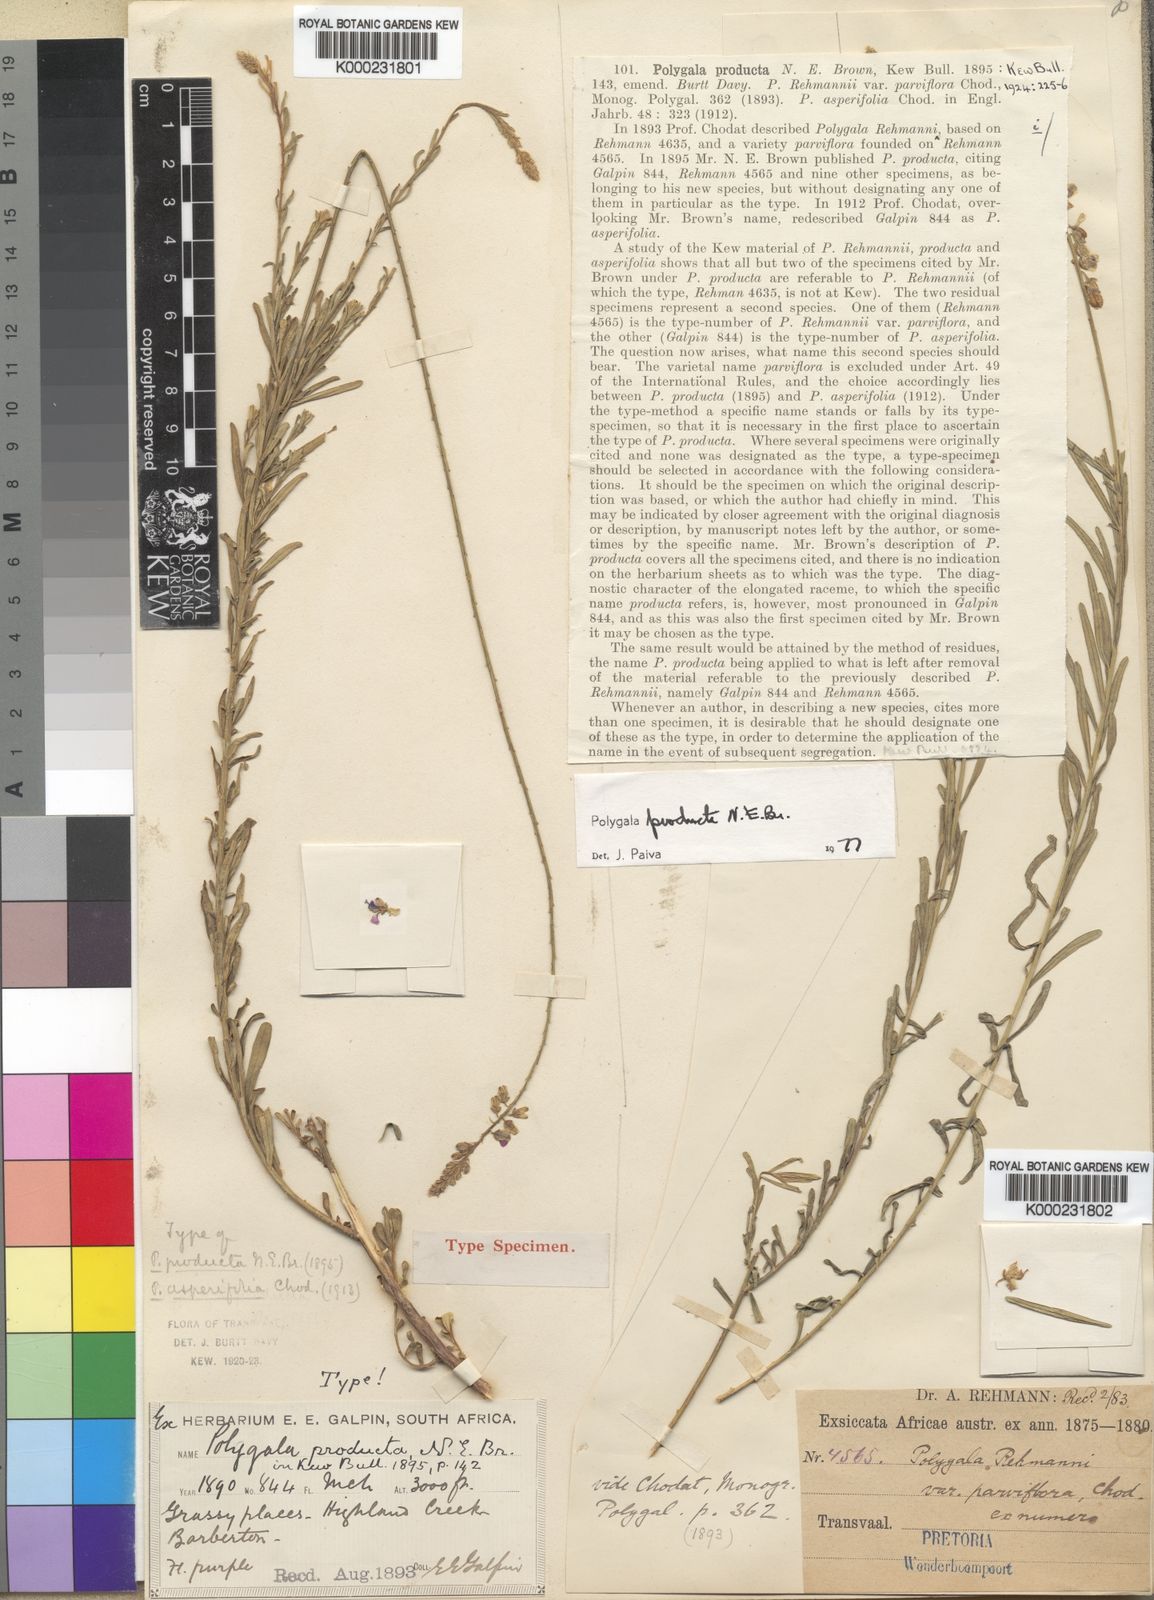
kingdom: Plantae
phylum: Tracheophyta
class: Magnoliopsida
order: Fabales
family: Polygalaceae
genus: Polygala
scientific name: Polygala producta
